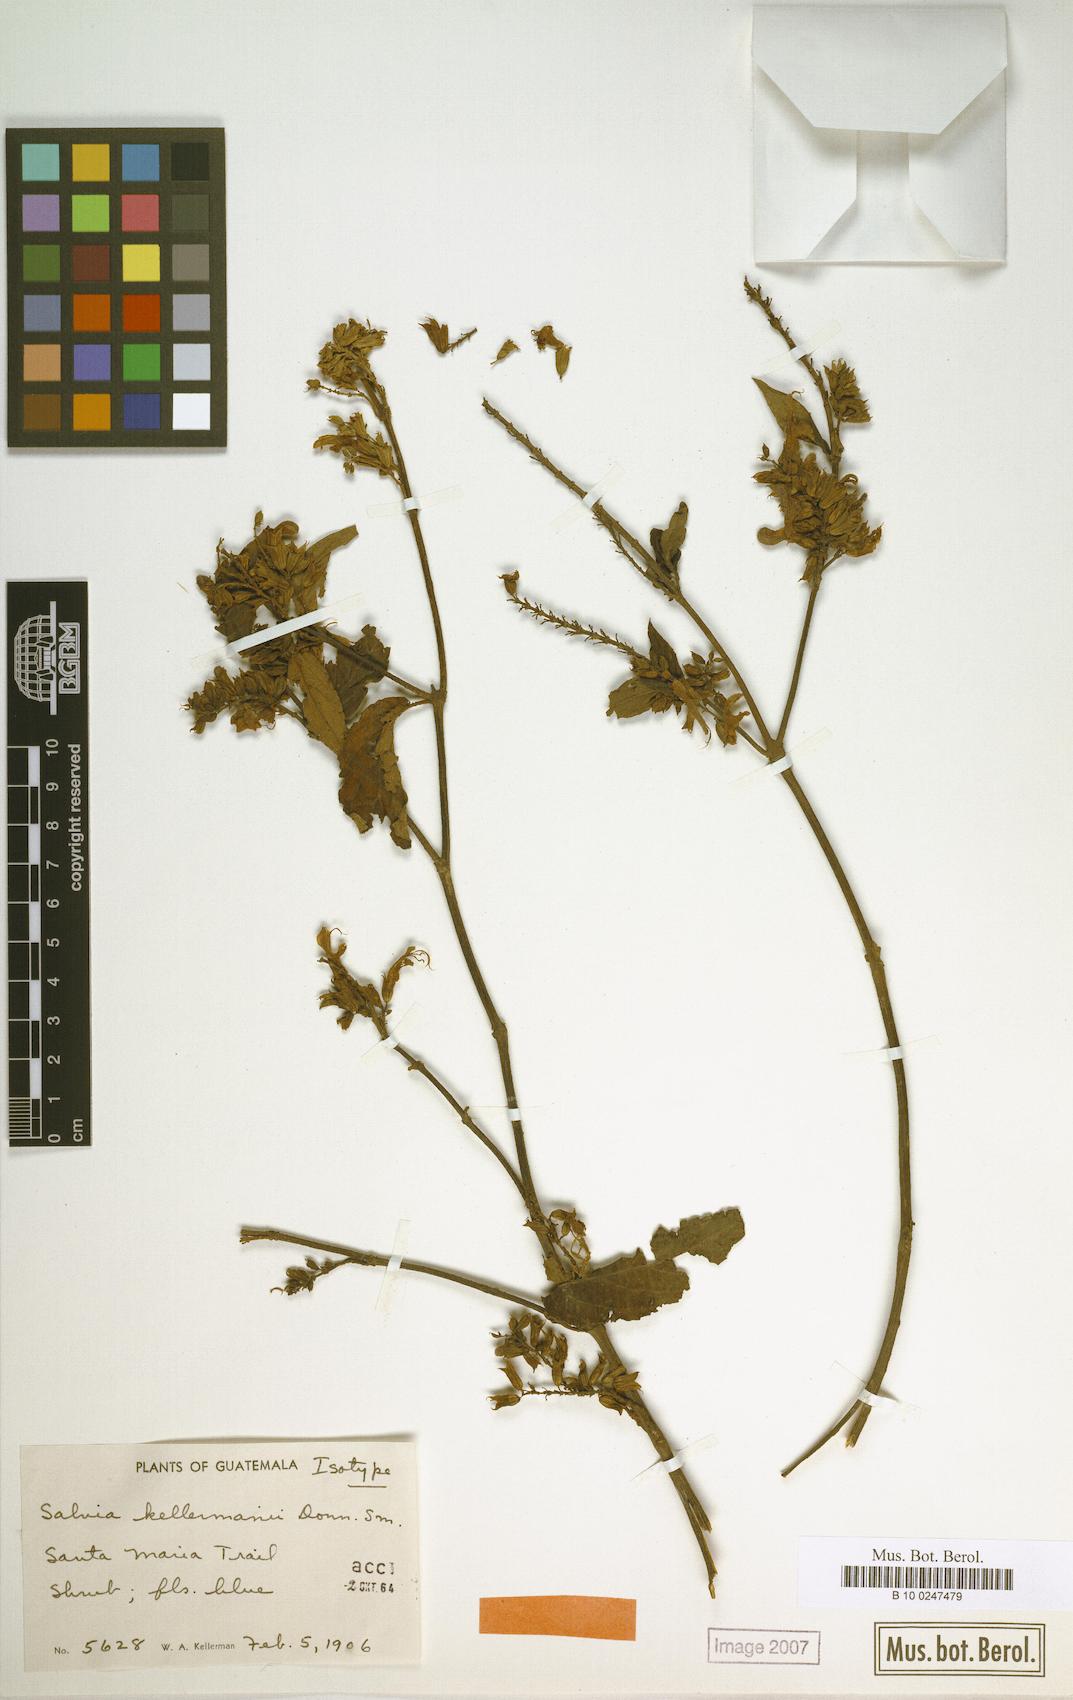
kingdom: Plantae
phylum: Tracheophyta
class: Magnoliopsida
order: Lamiales
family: Lamiaceae
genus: Salvia
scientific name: Salvia kellermanii
